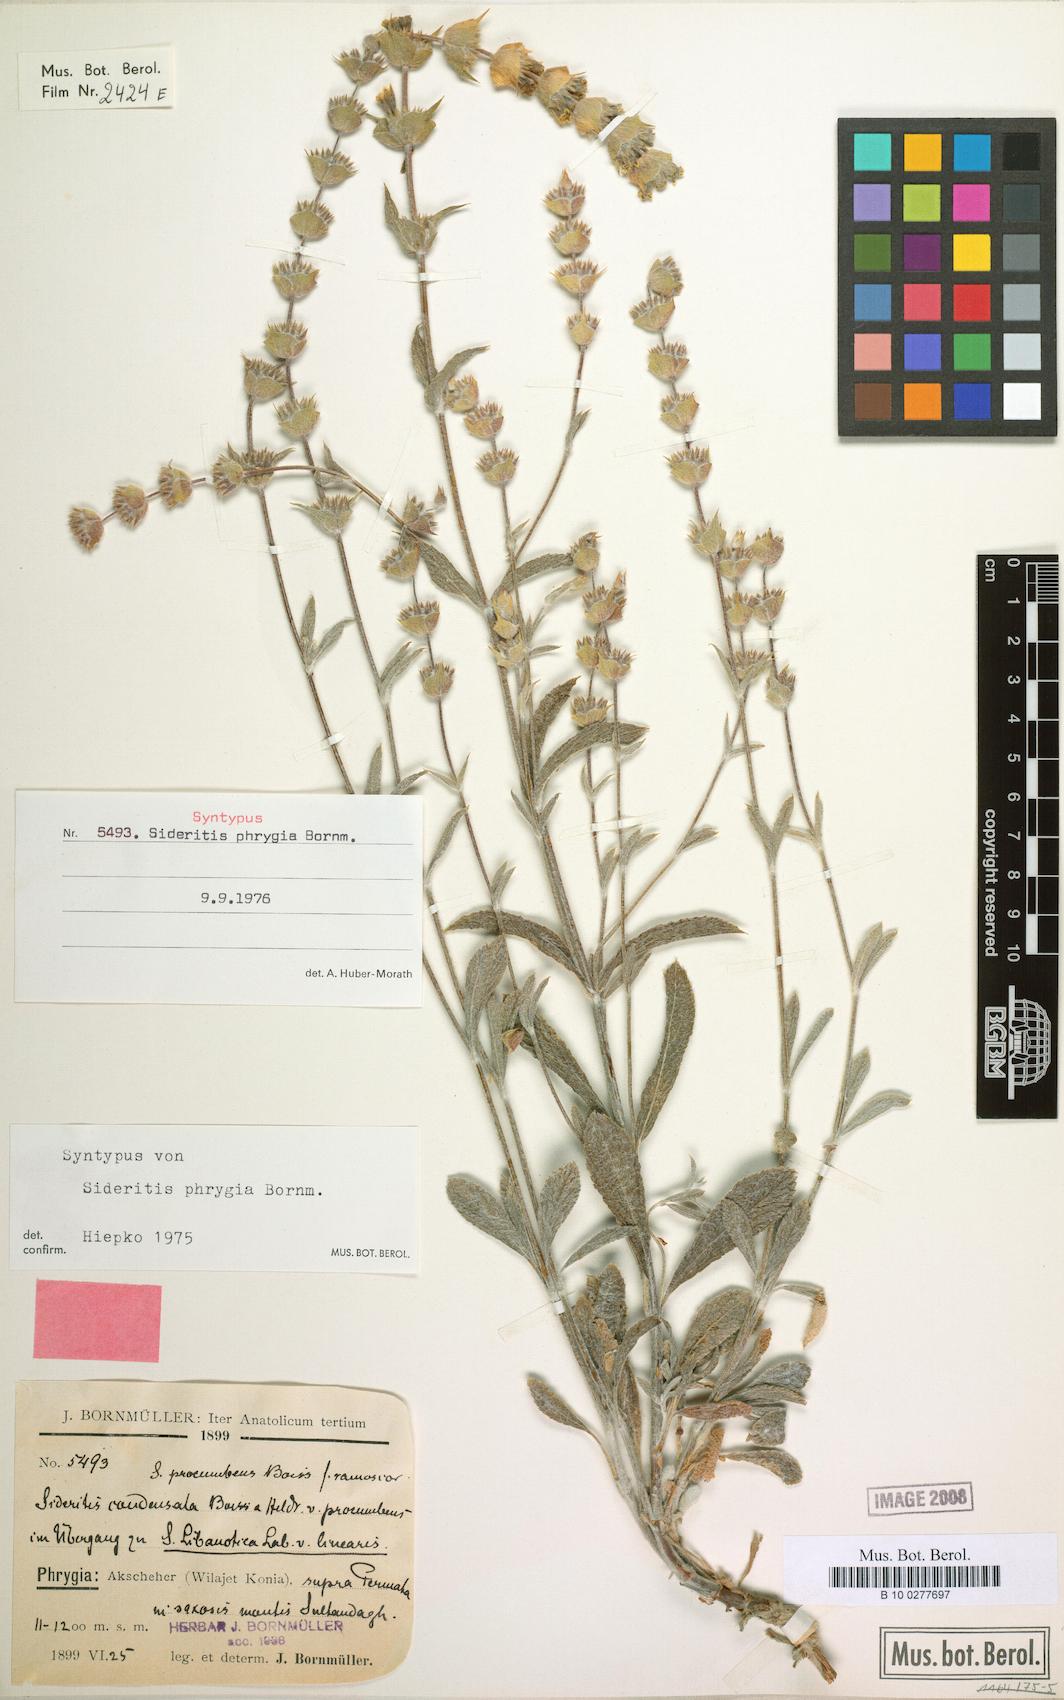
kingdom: Plantae
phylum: Tracheophyta
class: Magnoliopsida
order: Lamiales
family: Lamiaceae
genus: Sideritis
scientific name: Sideritis phrygia
